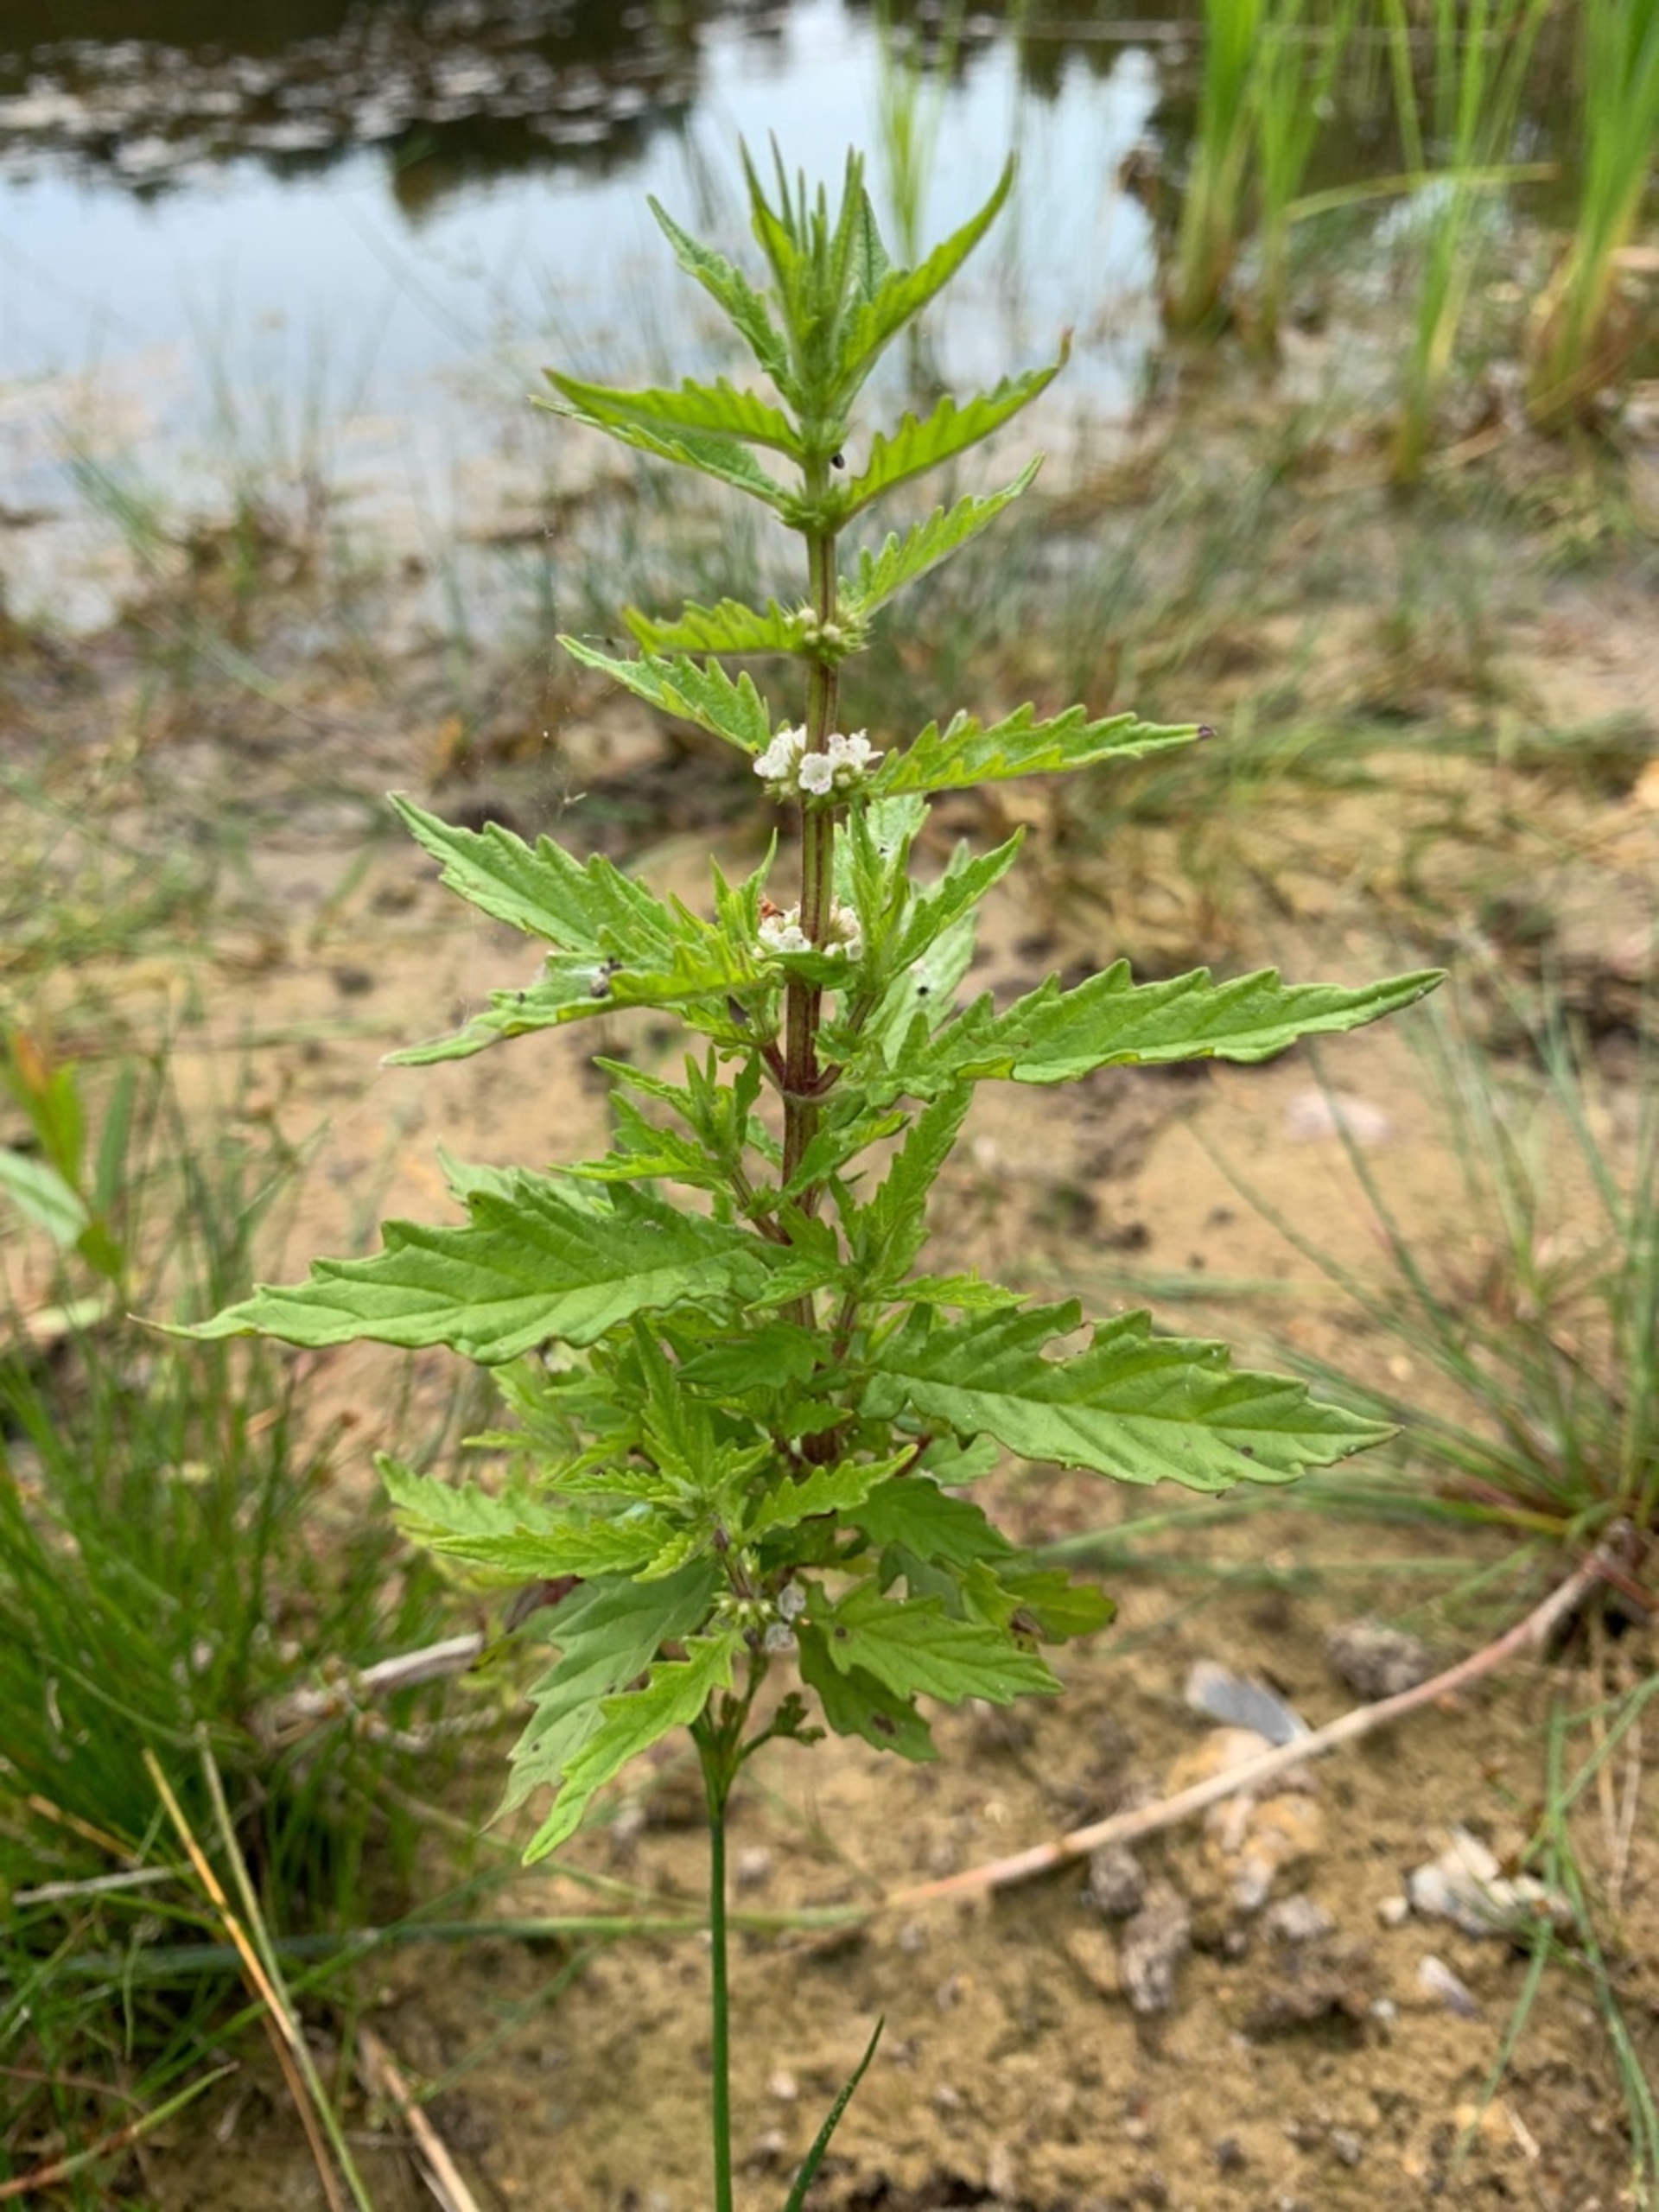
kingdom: Plantae
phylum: Tracheophyta
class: Magnoliopsida
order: Lamiales
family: Lamiaceae
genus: Lycopus
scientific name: Lycopus europaeus
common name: Sværtevæld
